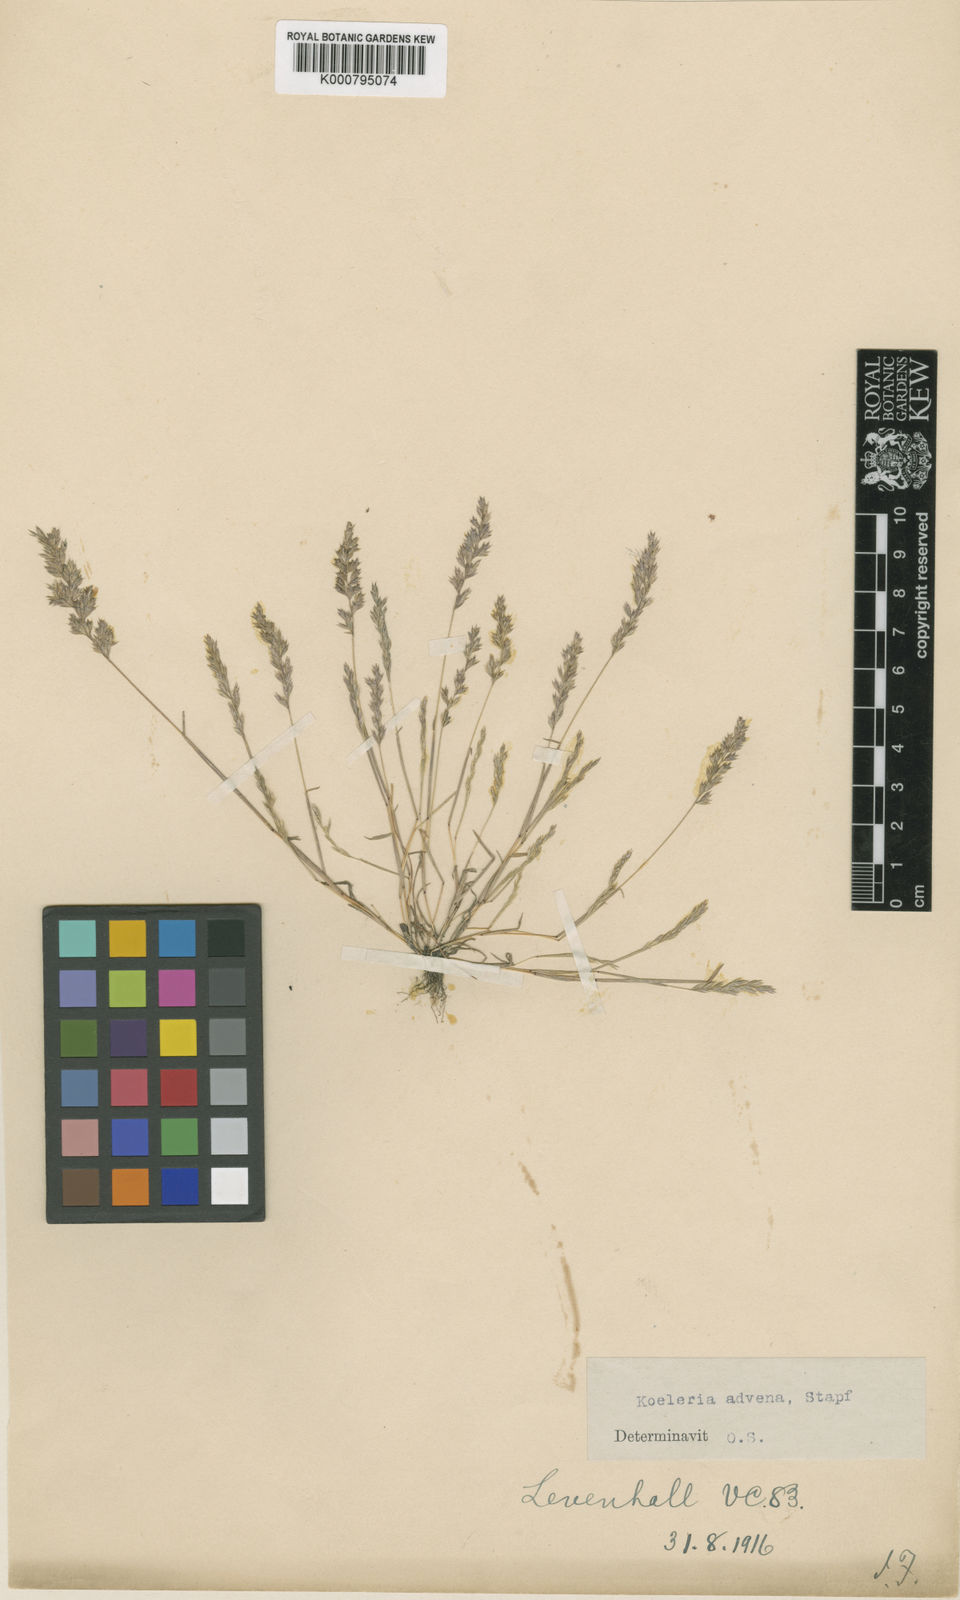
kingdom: Plantae
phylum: Tracheophyta
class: Liliopsida
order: Poales
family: Poaceae
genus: Rostraria
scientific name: Rostraria
